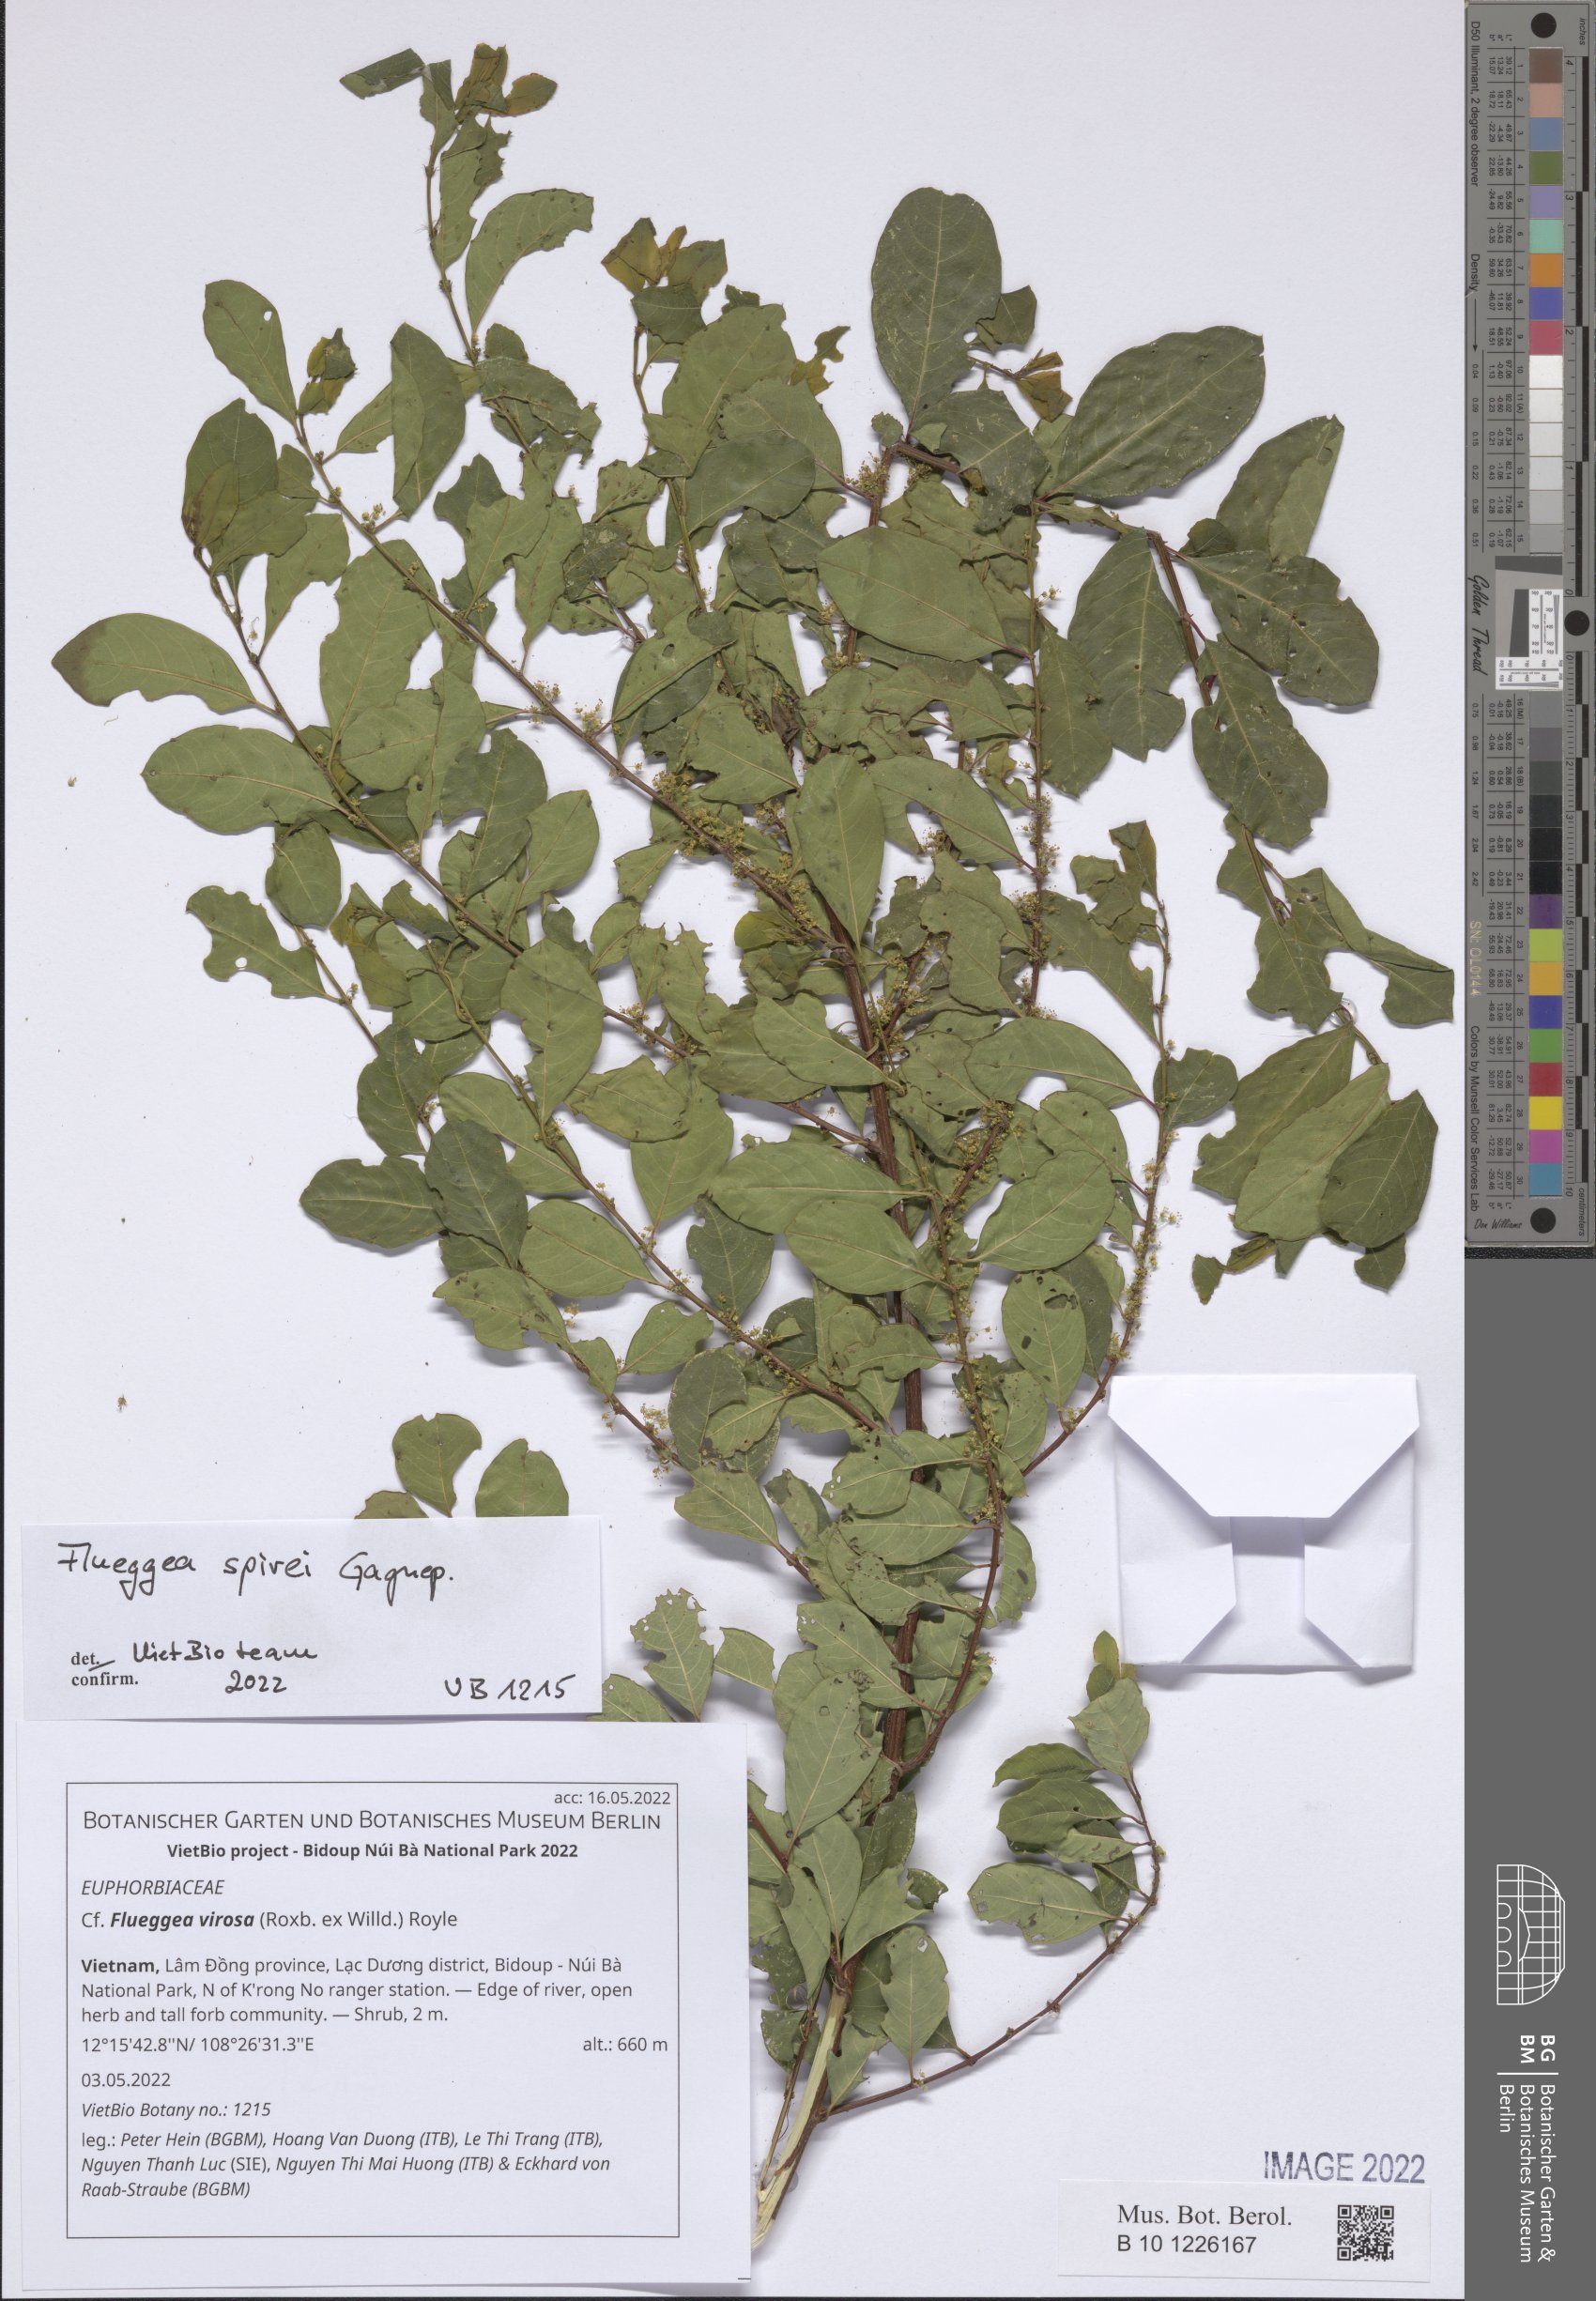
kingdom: Plantae
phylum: Tracheophyta
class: Magnoliopsida
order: Malpighiales
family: Euphorbiaceae
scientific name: Euphorbiaceae
